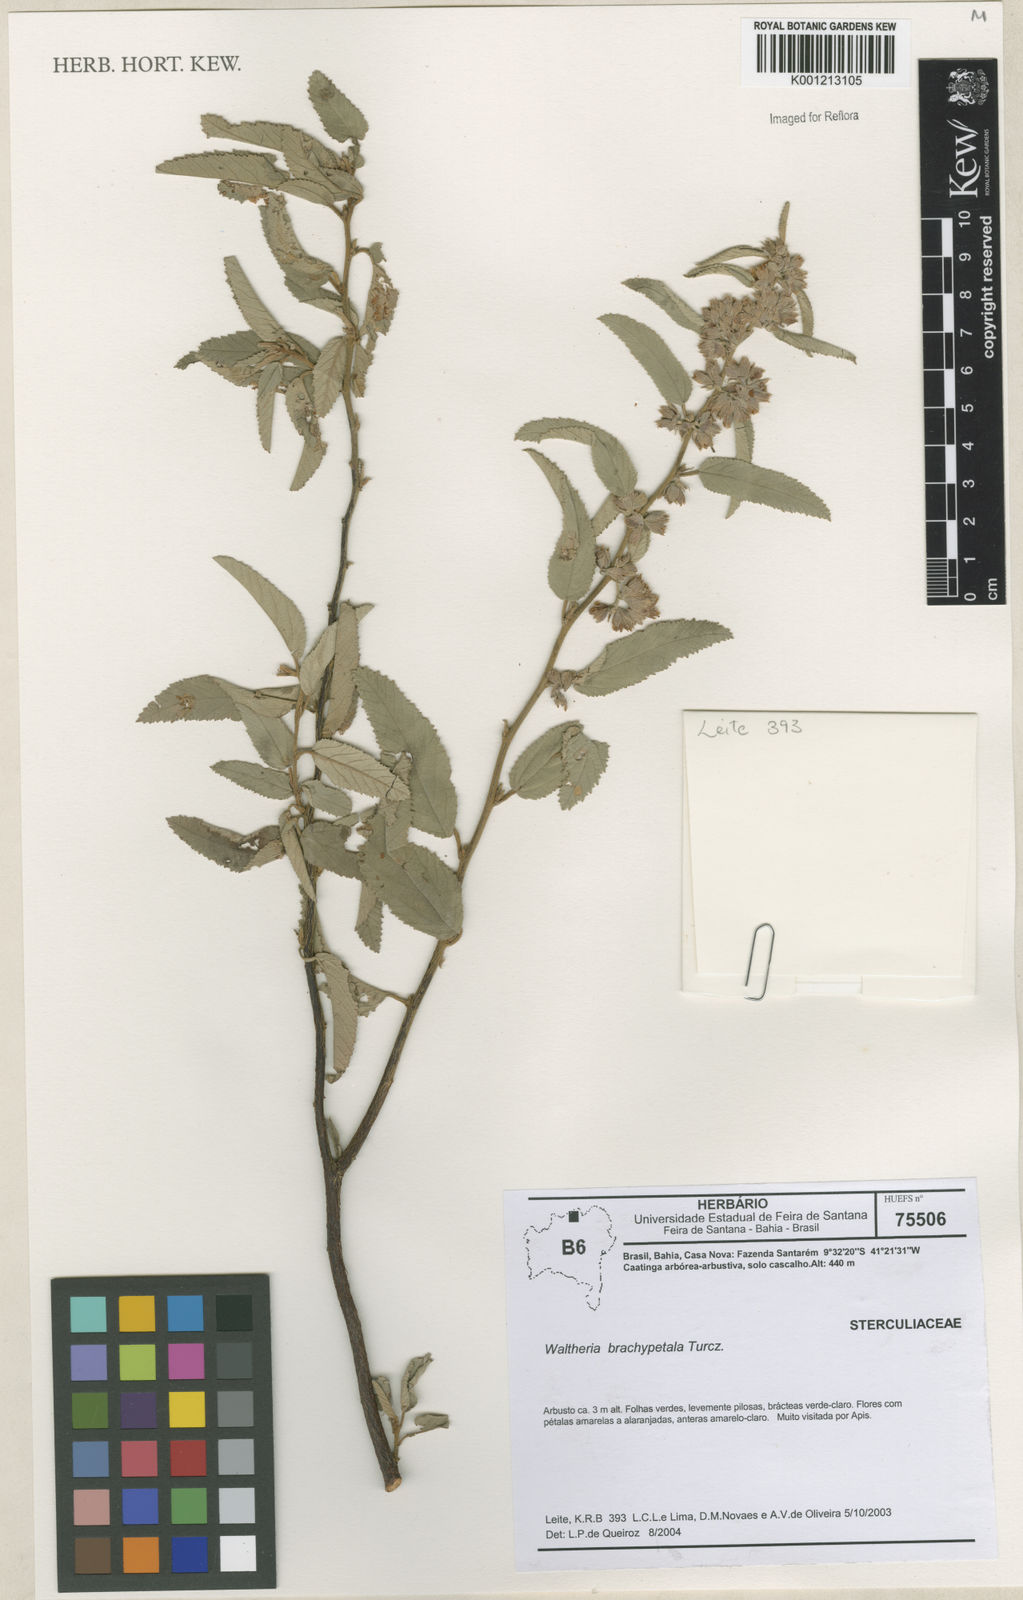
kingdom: Plantae
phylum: Tracheophyta
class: Magnoliopsida
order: Malvales
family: Malvaceae
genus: Waltheria
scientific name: Waltheria ferruginea
